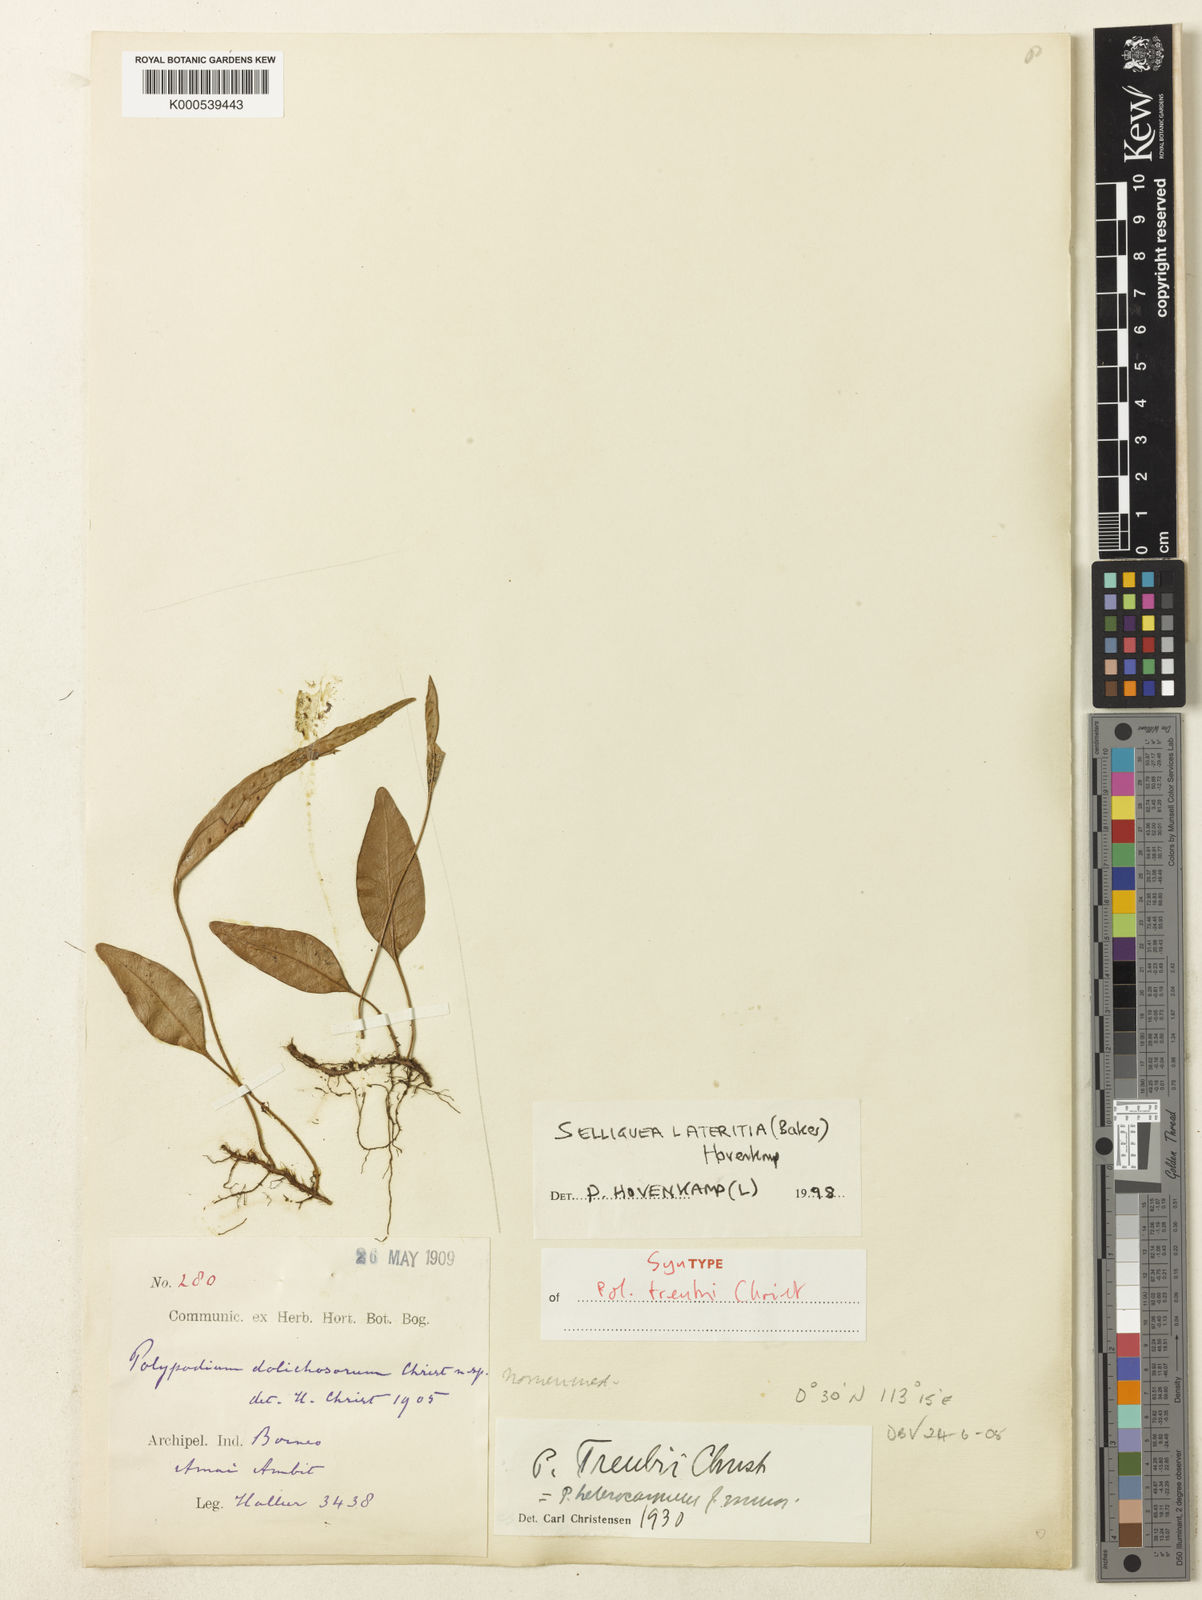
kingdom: Plantae
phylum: Tracheophyta
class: Polypodiopsida
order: Polypodiales
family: Polypodiaceae
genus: Selliguea
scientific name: Selliguea lateritia
